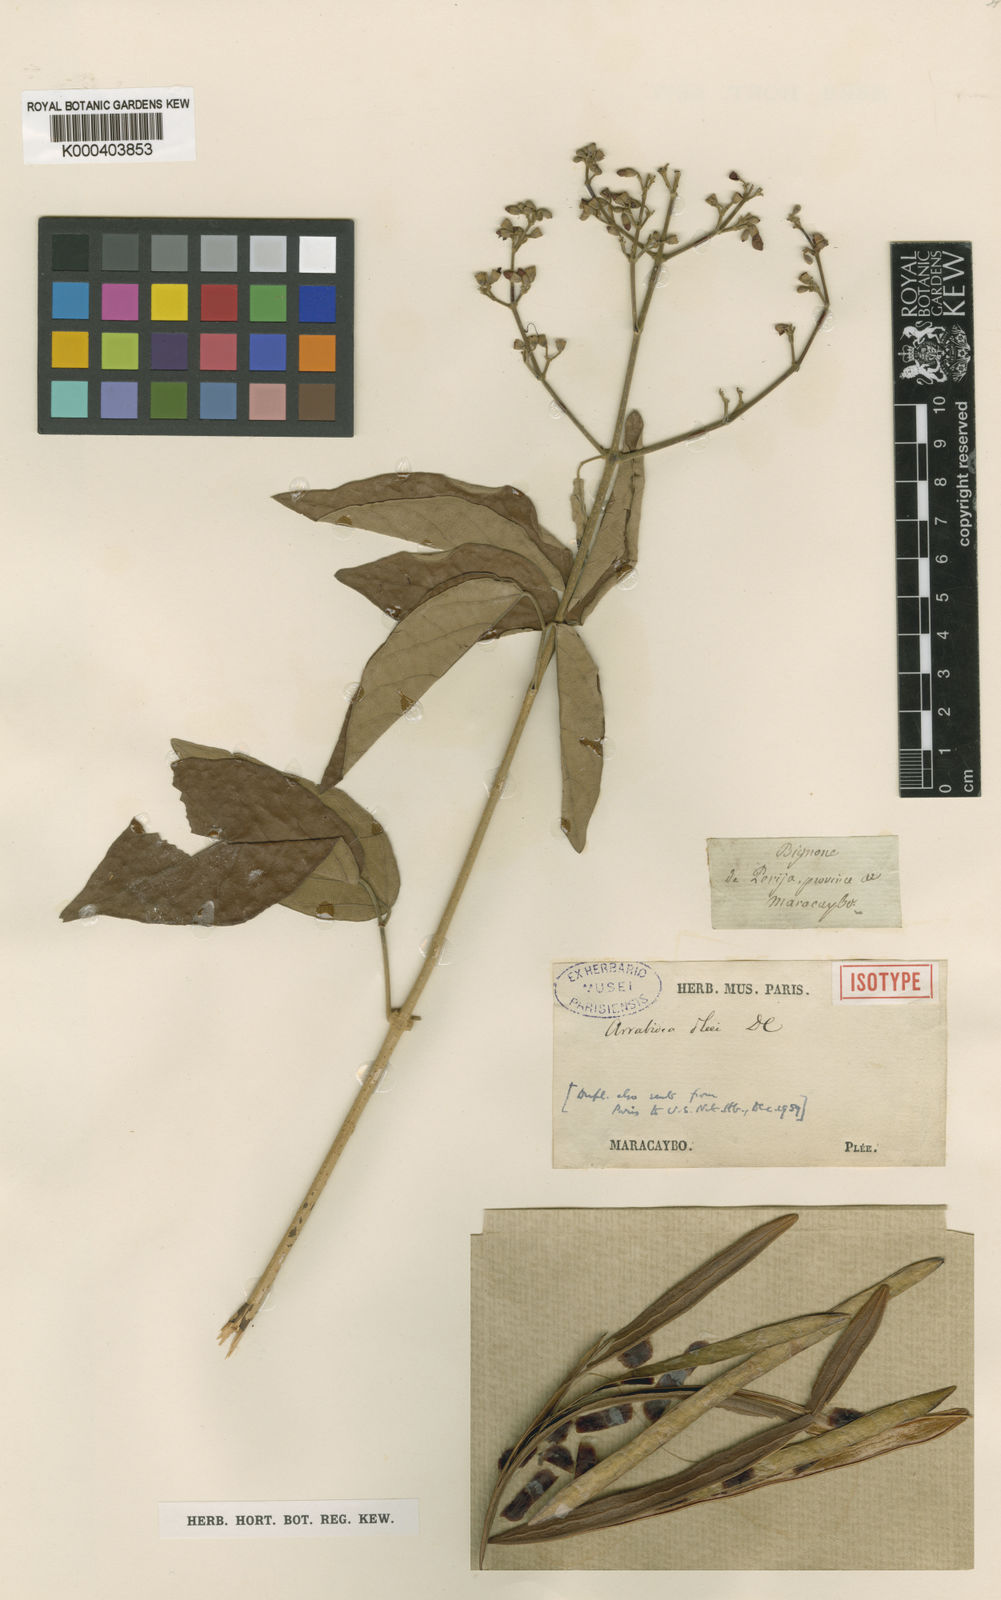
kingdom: Plantae
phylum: Tracheophyta
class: Magnoliopsida
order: Lamiales
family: Bignoniaceae
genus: Fridericia
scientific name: Fridericia pubescens
